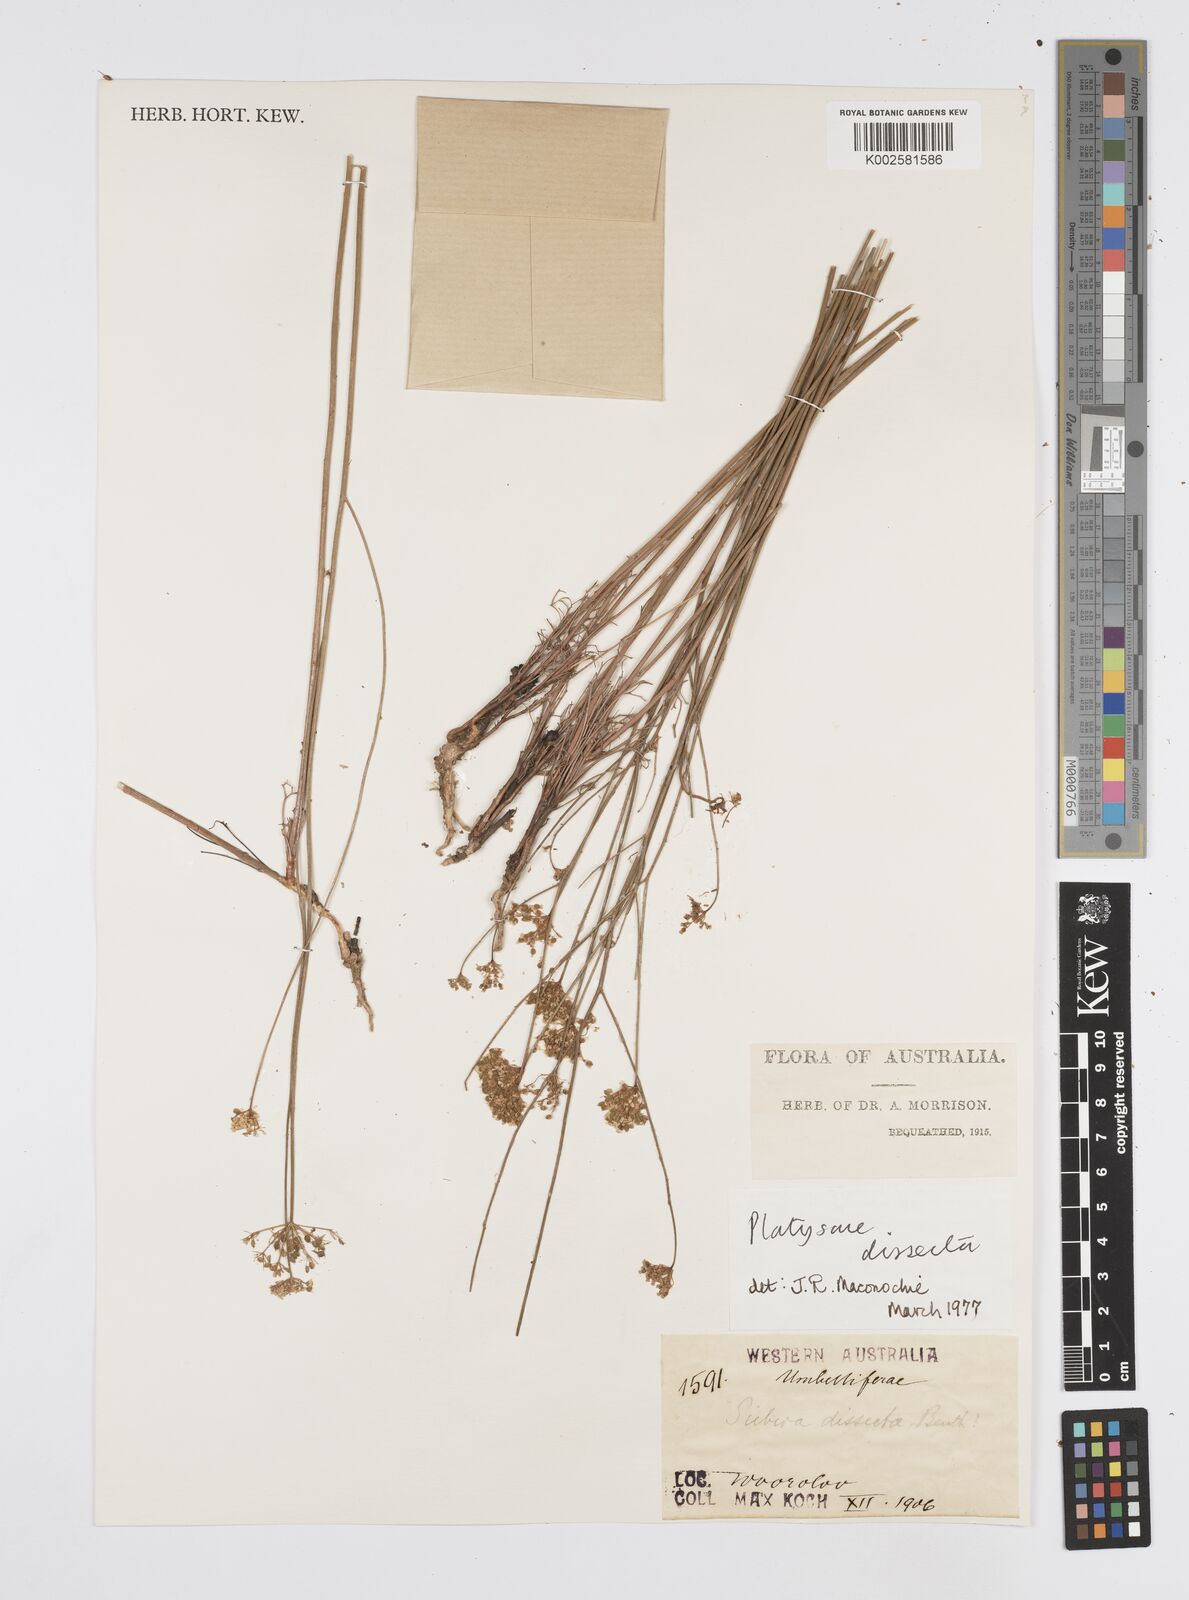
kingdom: Plantae
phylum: Tracheophyta
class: Magnoliopsida
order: Apiales
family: Apiaceae
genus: Platysace
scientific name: Platysace juncea
